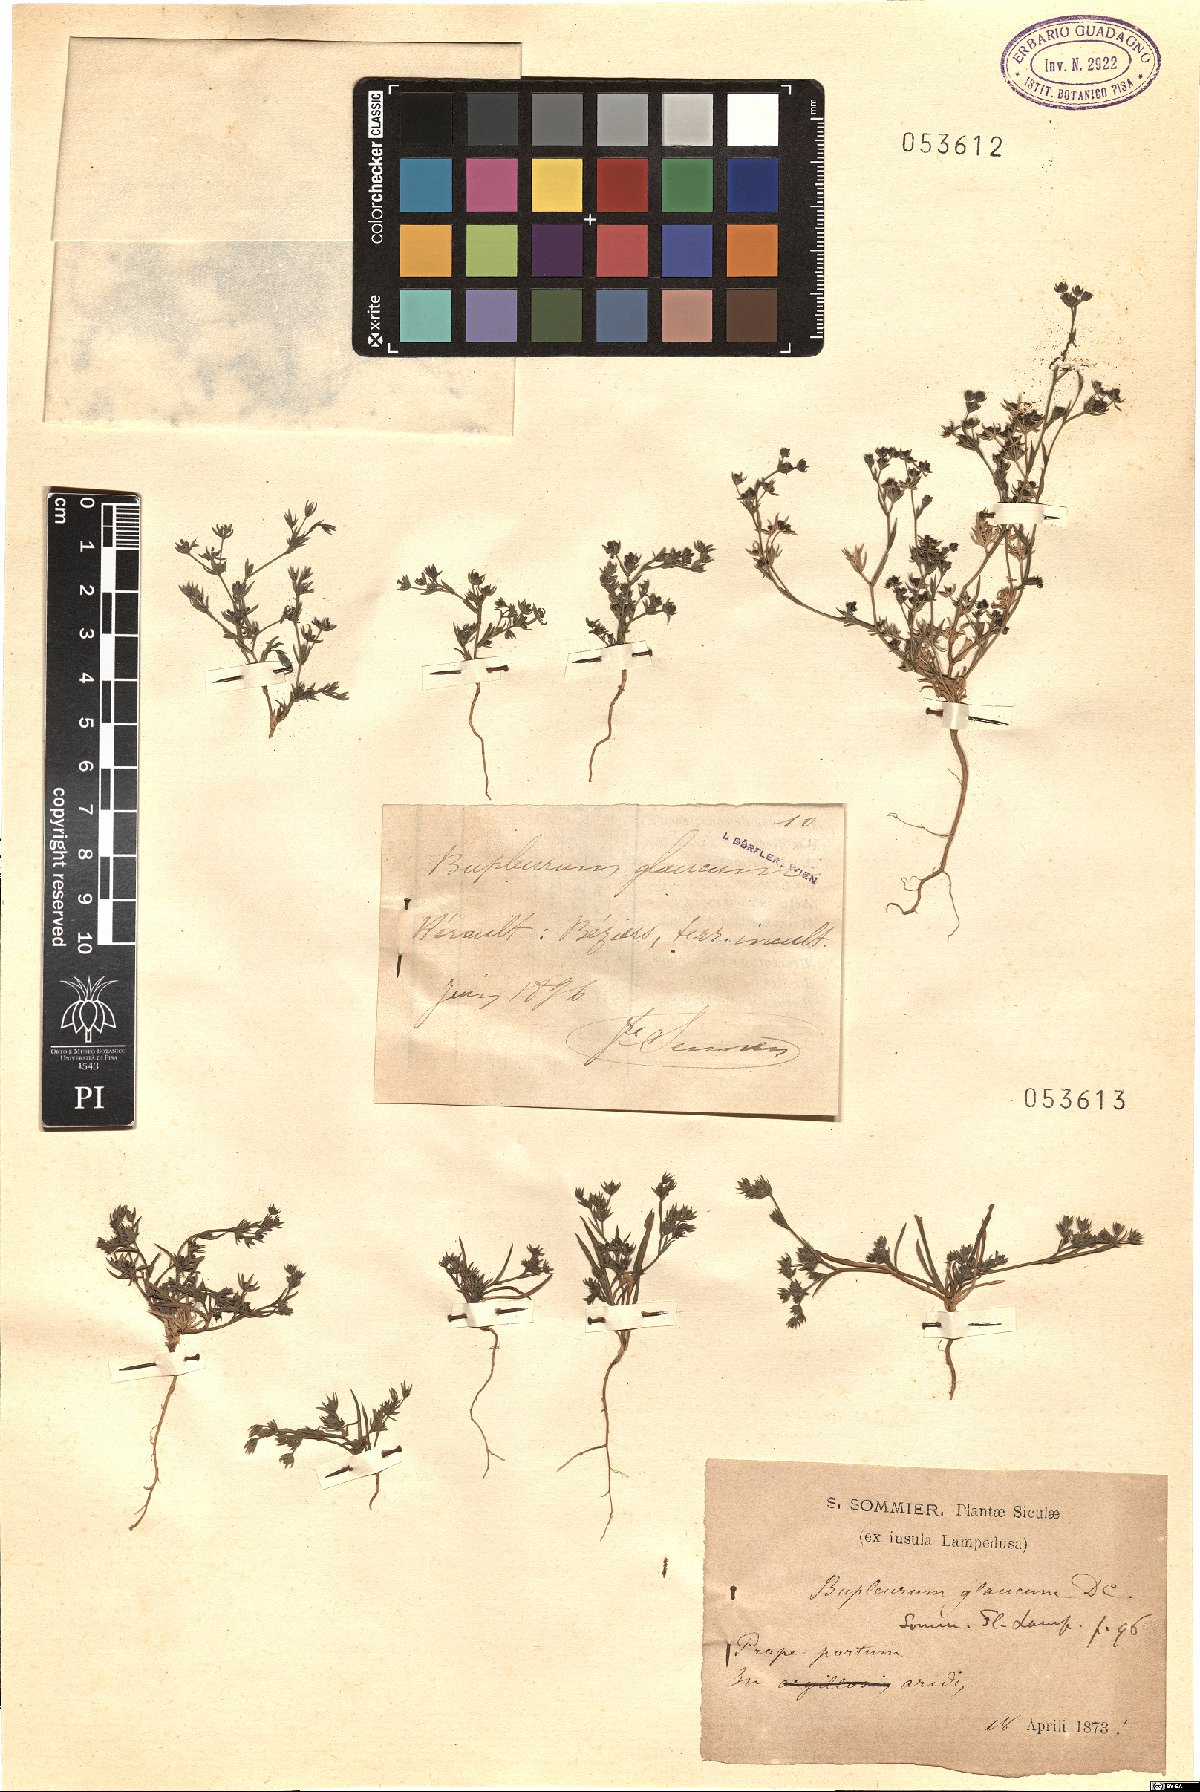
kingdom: Plantae
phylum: Tracheophyta
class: Magnoliopsida
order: Apiales
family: Apiaceae
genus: Bupleurum
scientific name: Bupleurum semicompositum
